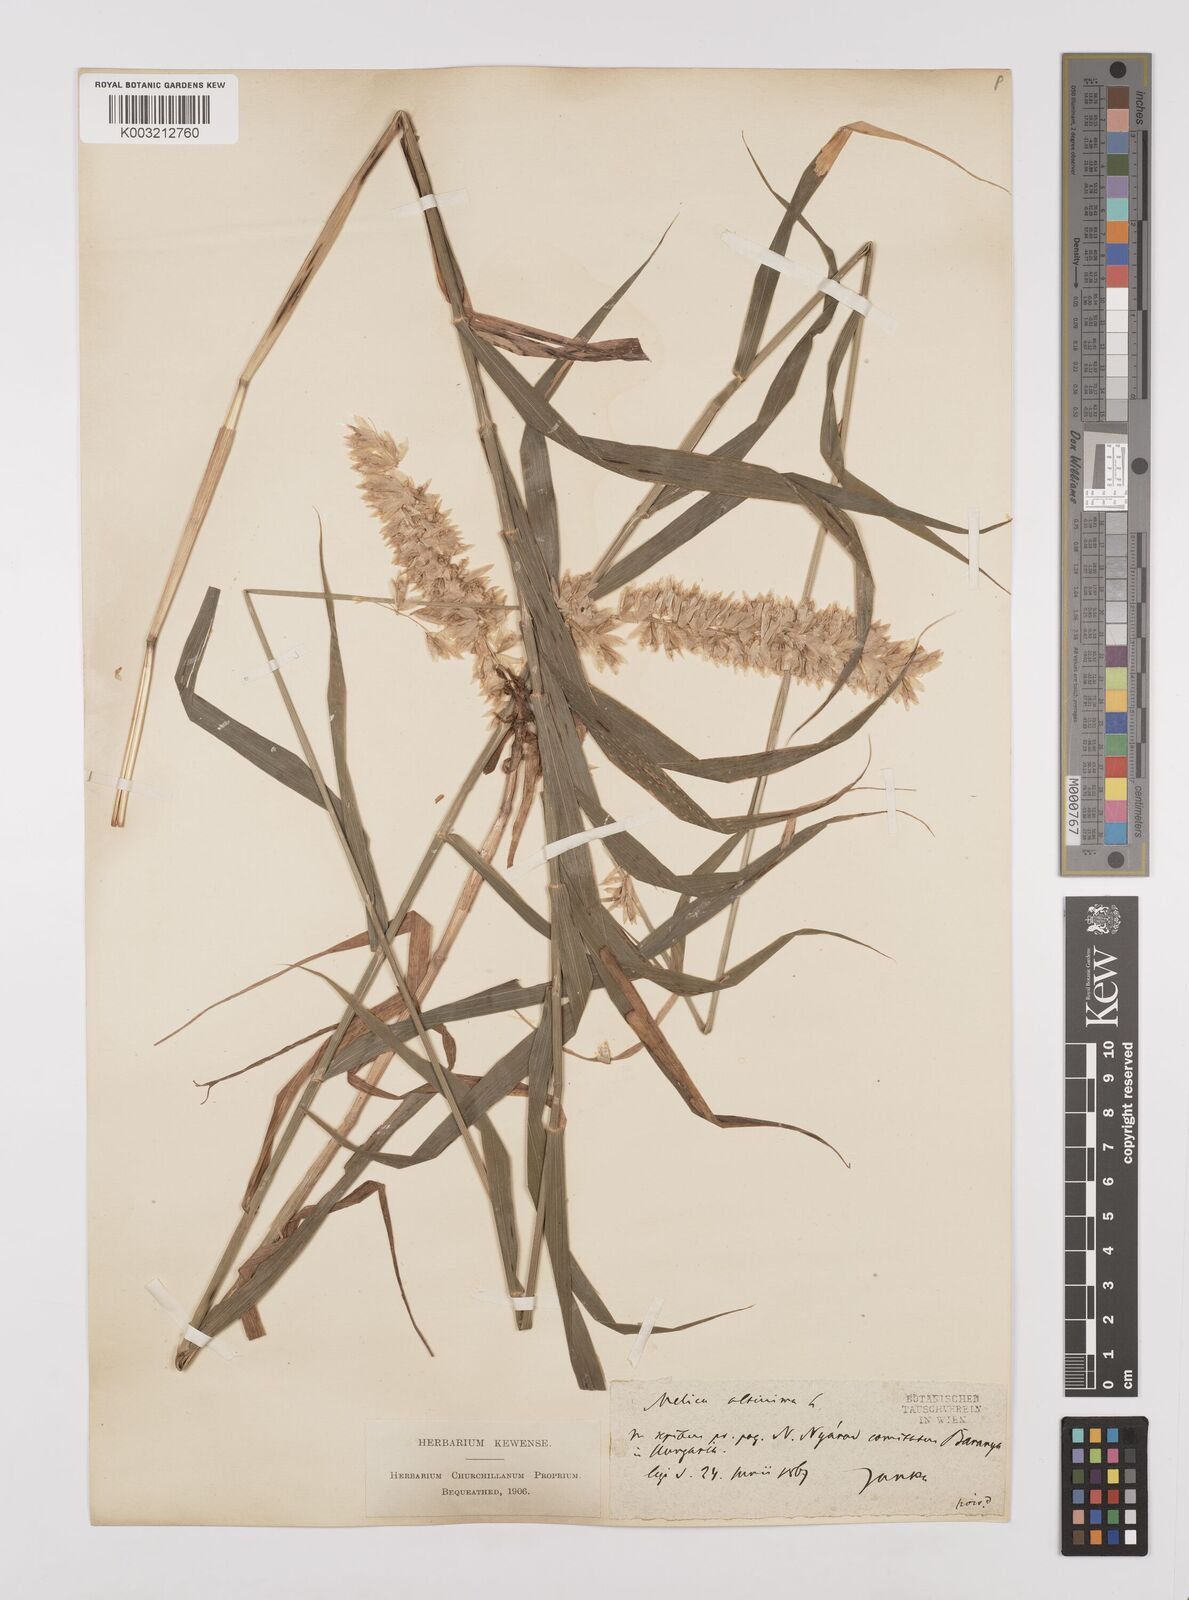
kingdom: Plantae
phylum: Tracheophyta
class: Liliopsida
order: Poales
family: Poaceae
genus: Melica
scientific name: Melica altissima
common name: Siberian melicgrass
